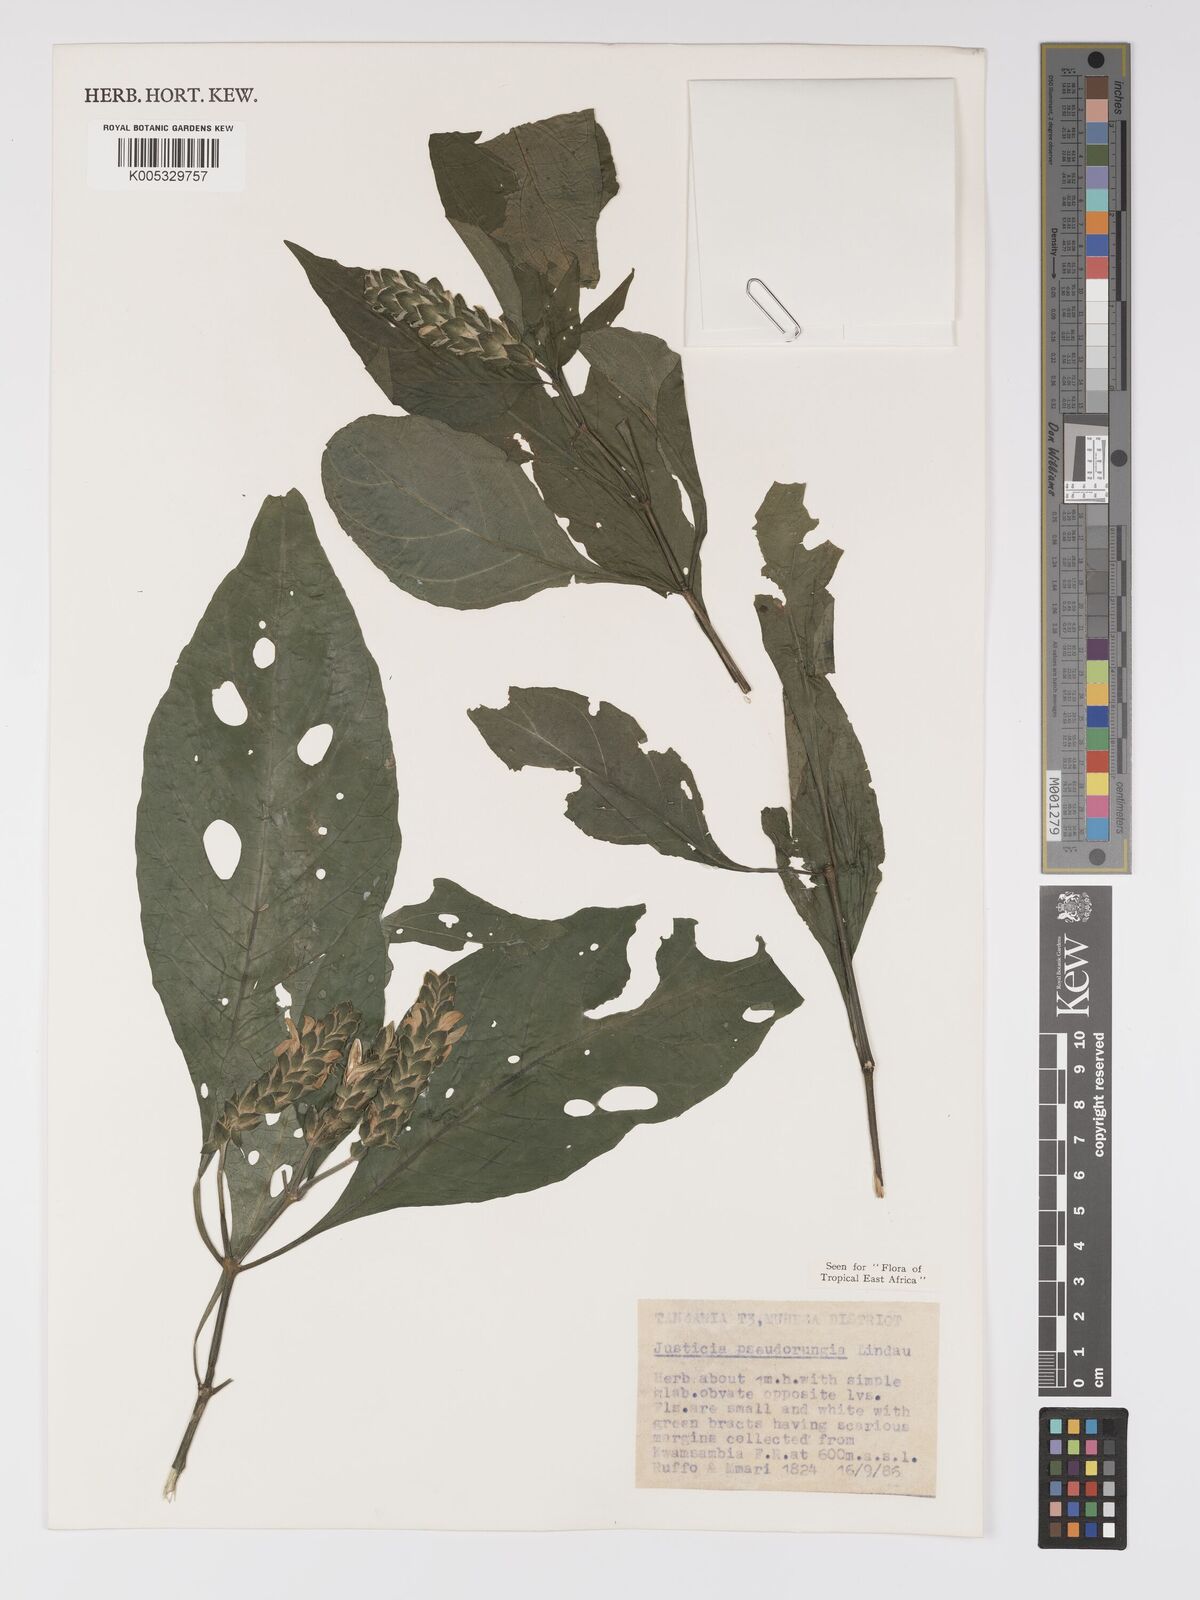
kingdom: Plantae
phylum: Tracheophyta
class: Magnoliopsida
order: Lamiales
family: Acanthaceae
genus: Justicia
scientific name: Justicia pseudorungia
